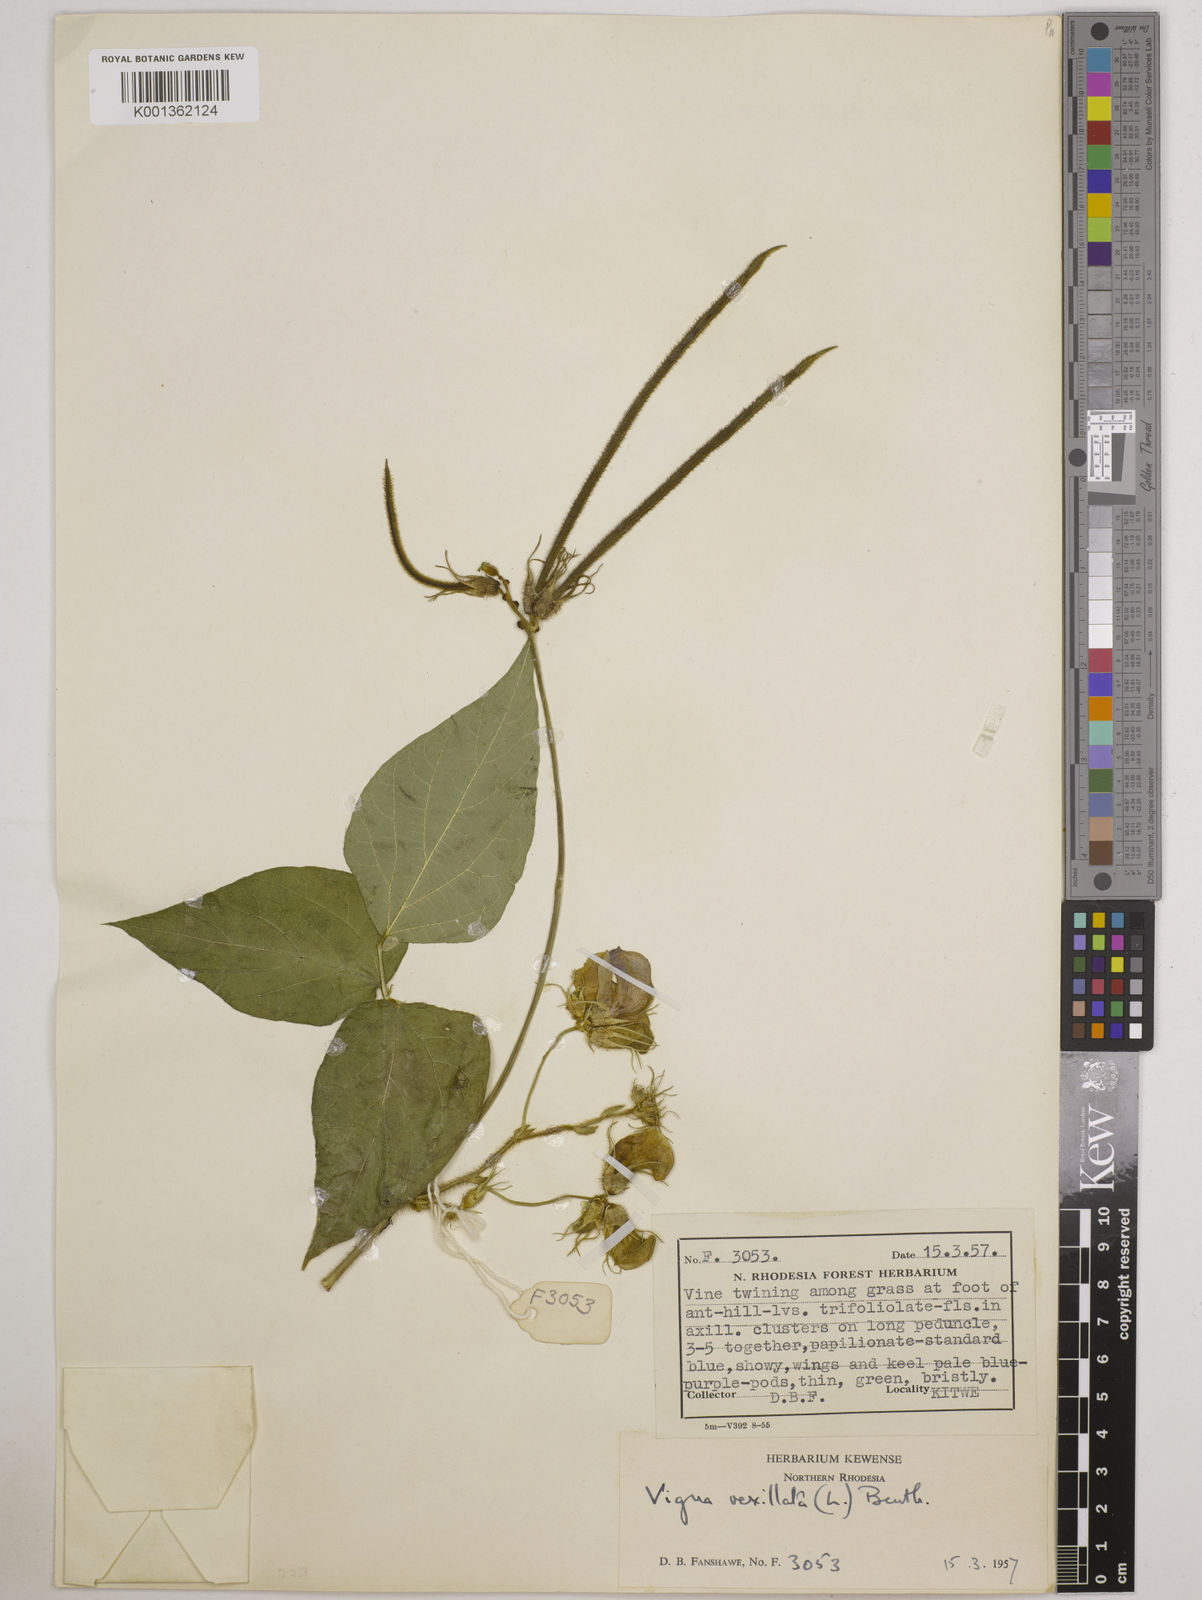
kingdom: Plantae
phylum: Tracheophyta
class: Magnoliopsida
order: Fabales
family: Fabaceae
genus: Vigna
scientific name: Vigna vexillata
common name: Zombi pea
